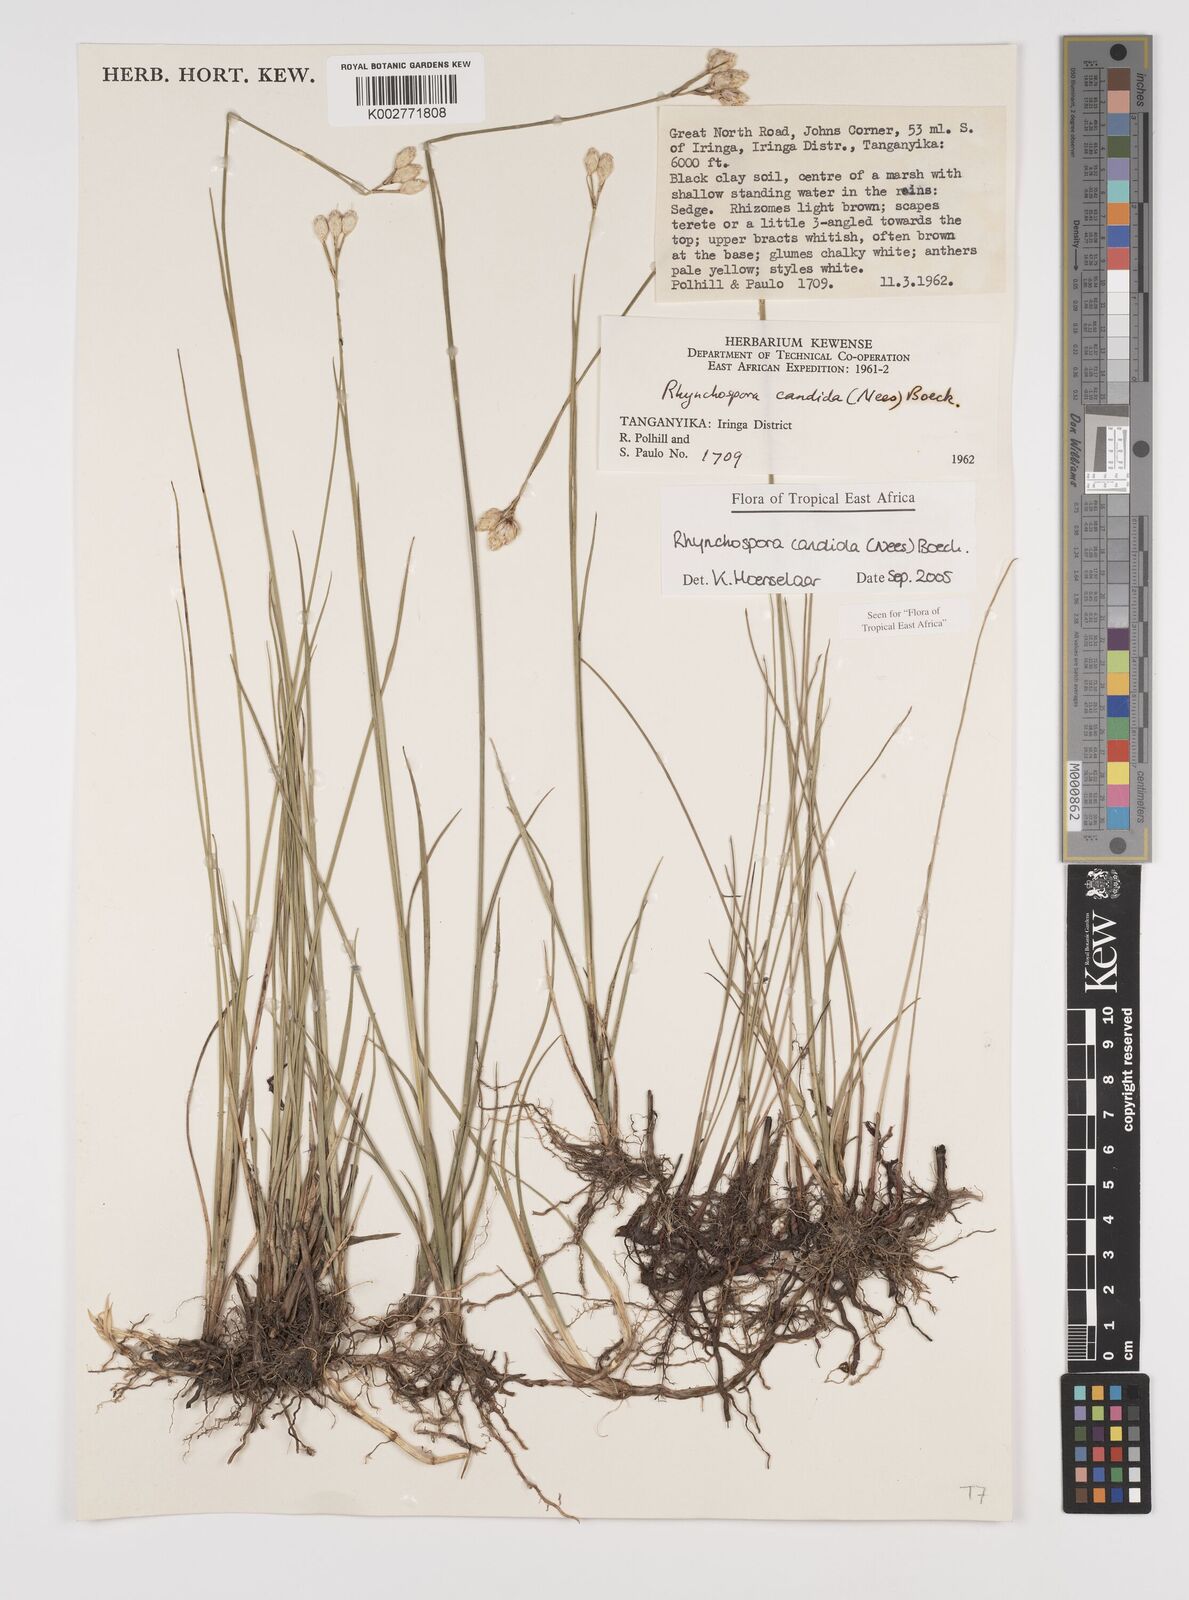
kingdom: Plantae
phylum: Tracheophyta
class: Liliopsida
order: Poales
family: Cyperaceae
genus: Rhynchospora
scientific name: Rhynchospora candida
